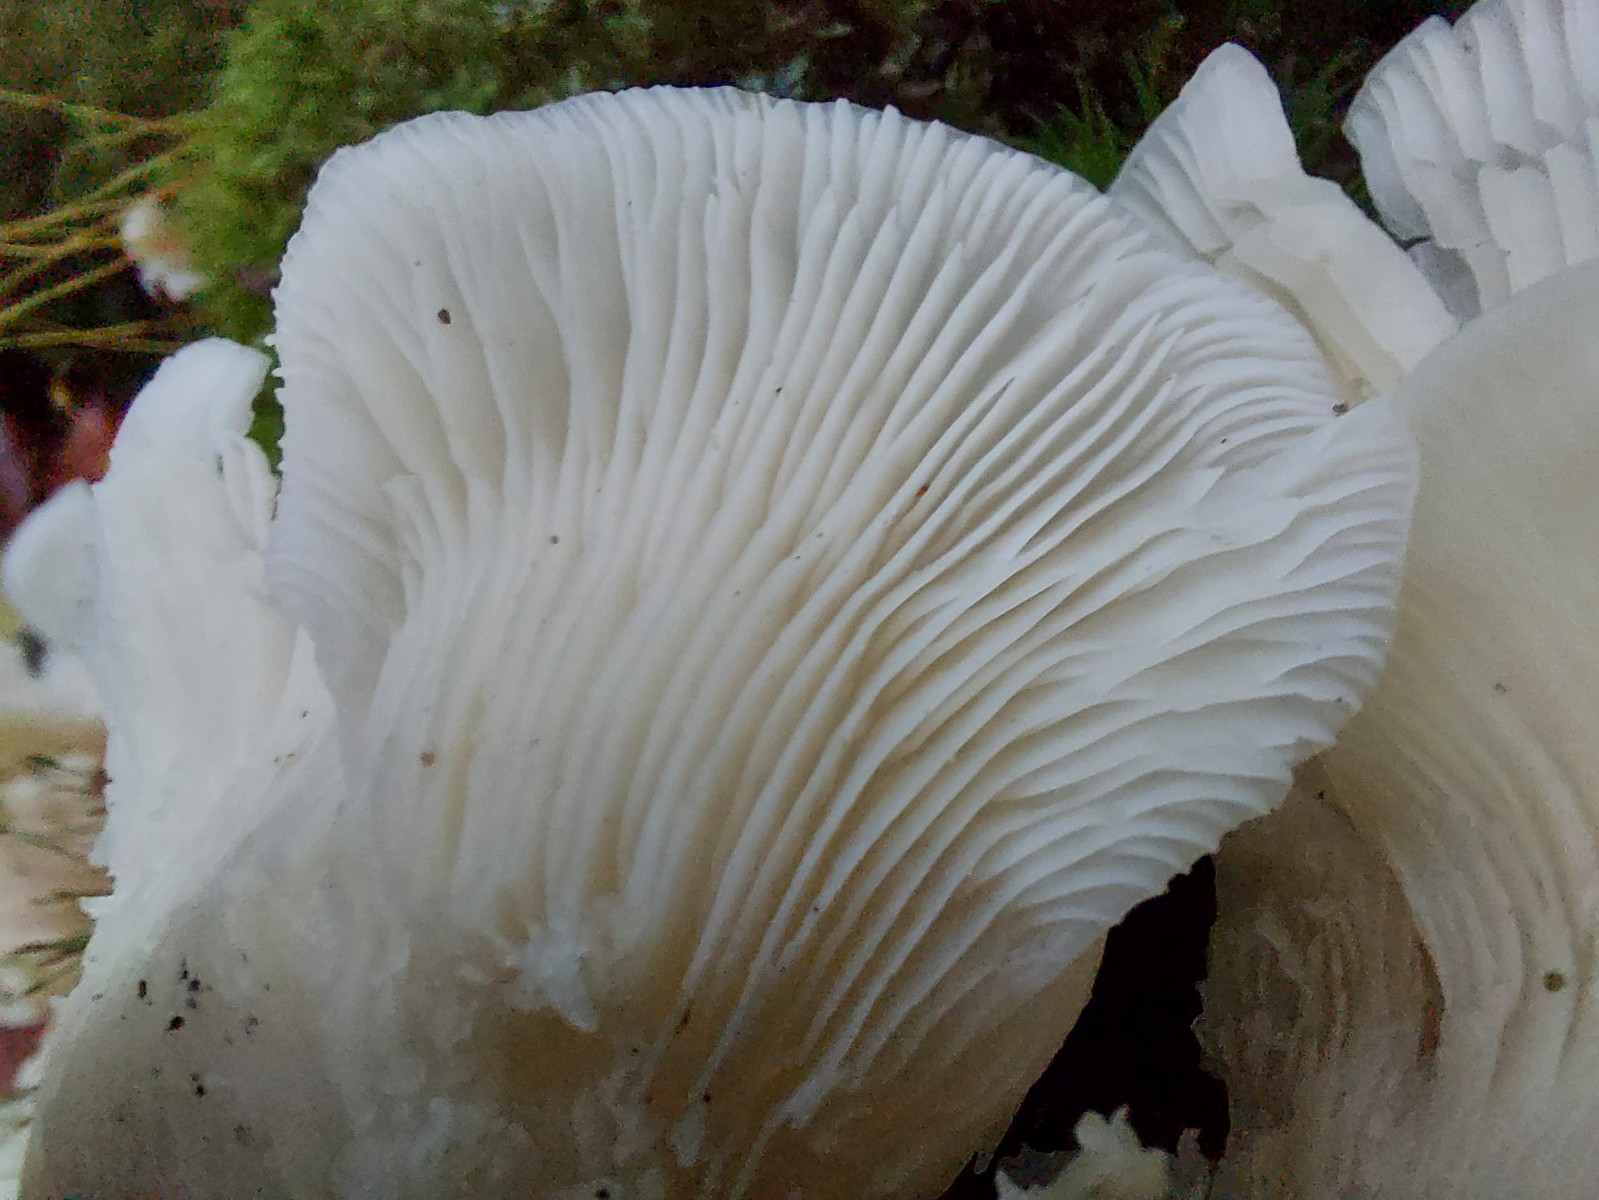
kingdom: Fungi
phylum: Basidiomycota
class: Agaricomycetes
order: Agaricales
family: Marasmiaceae
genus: Pleurocybella
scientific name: Pleurocybella porrigens
